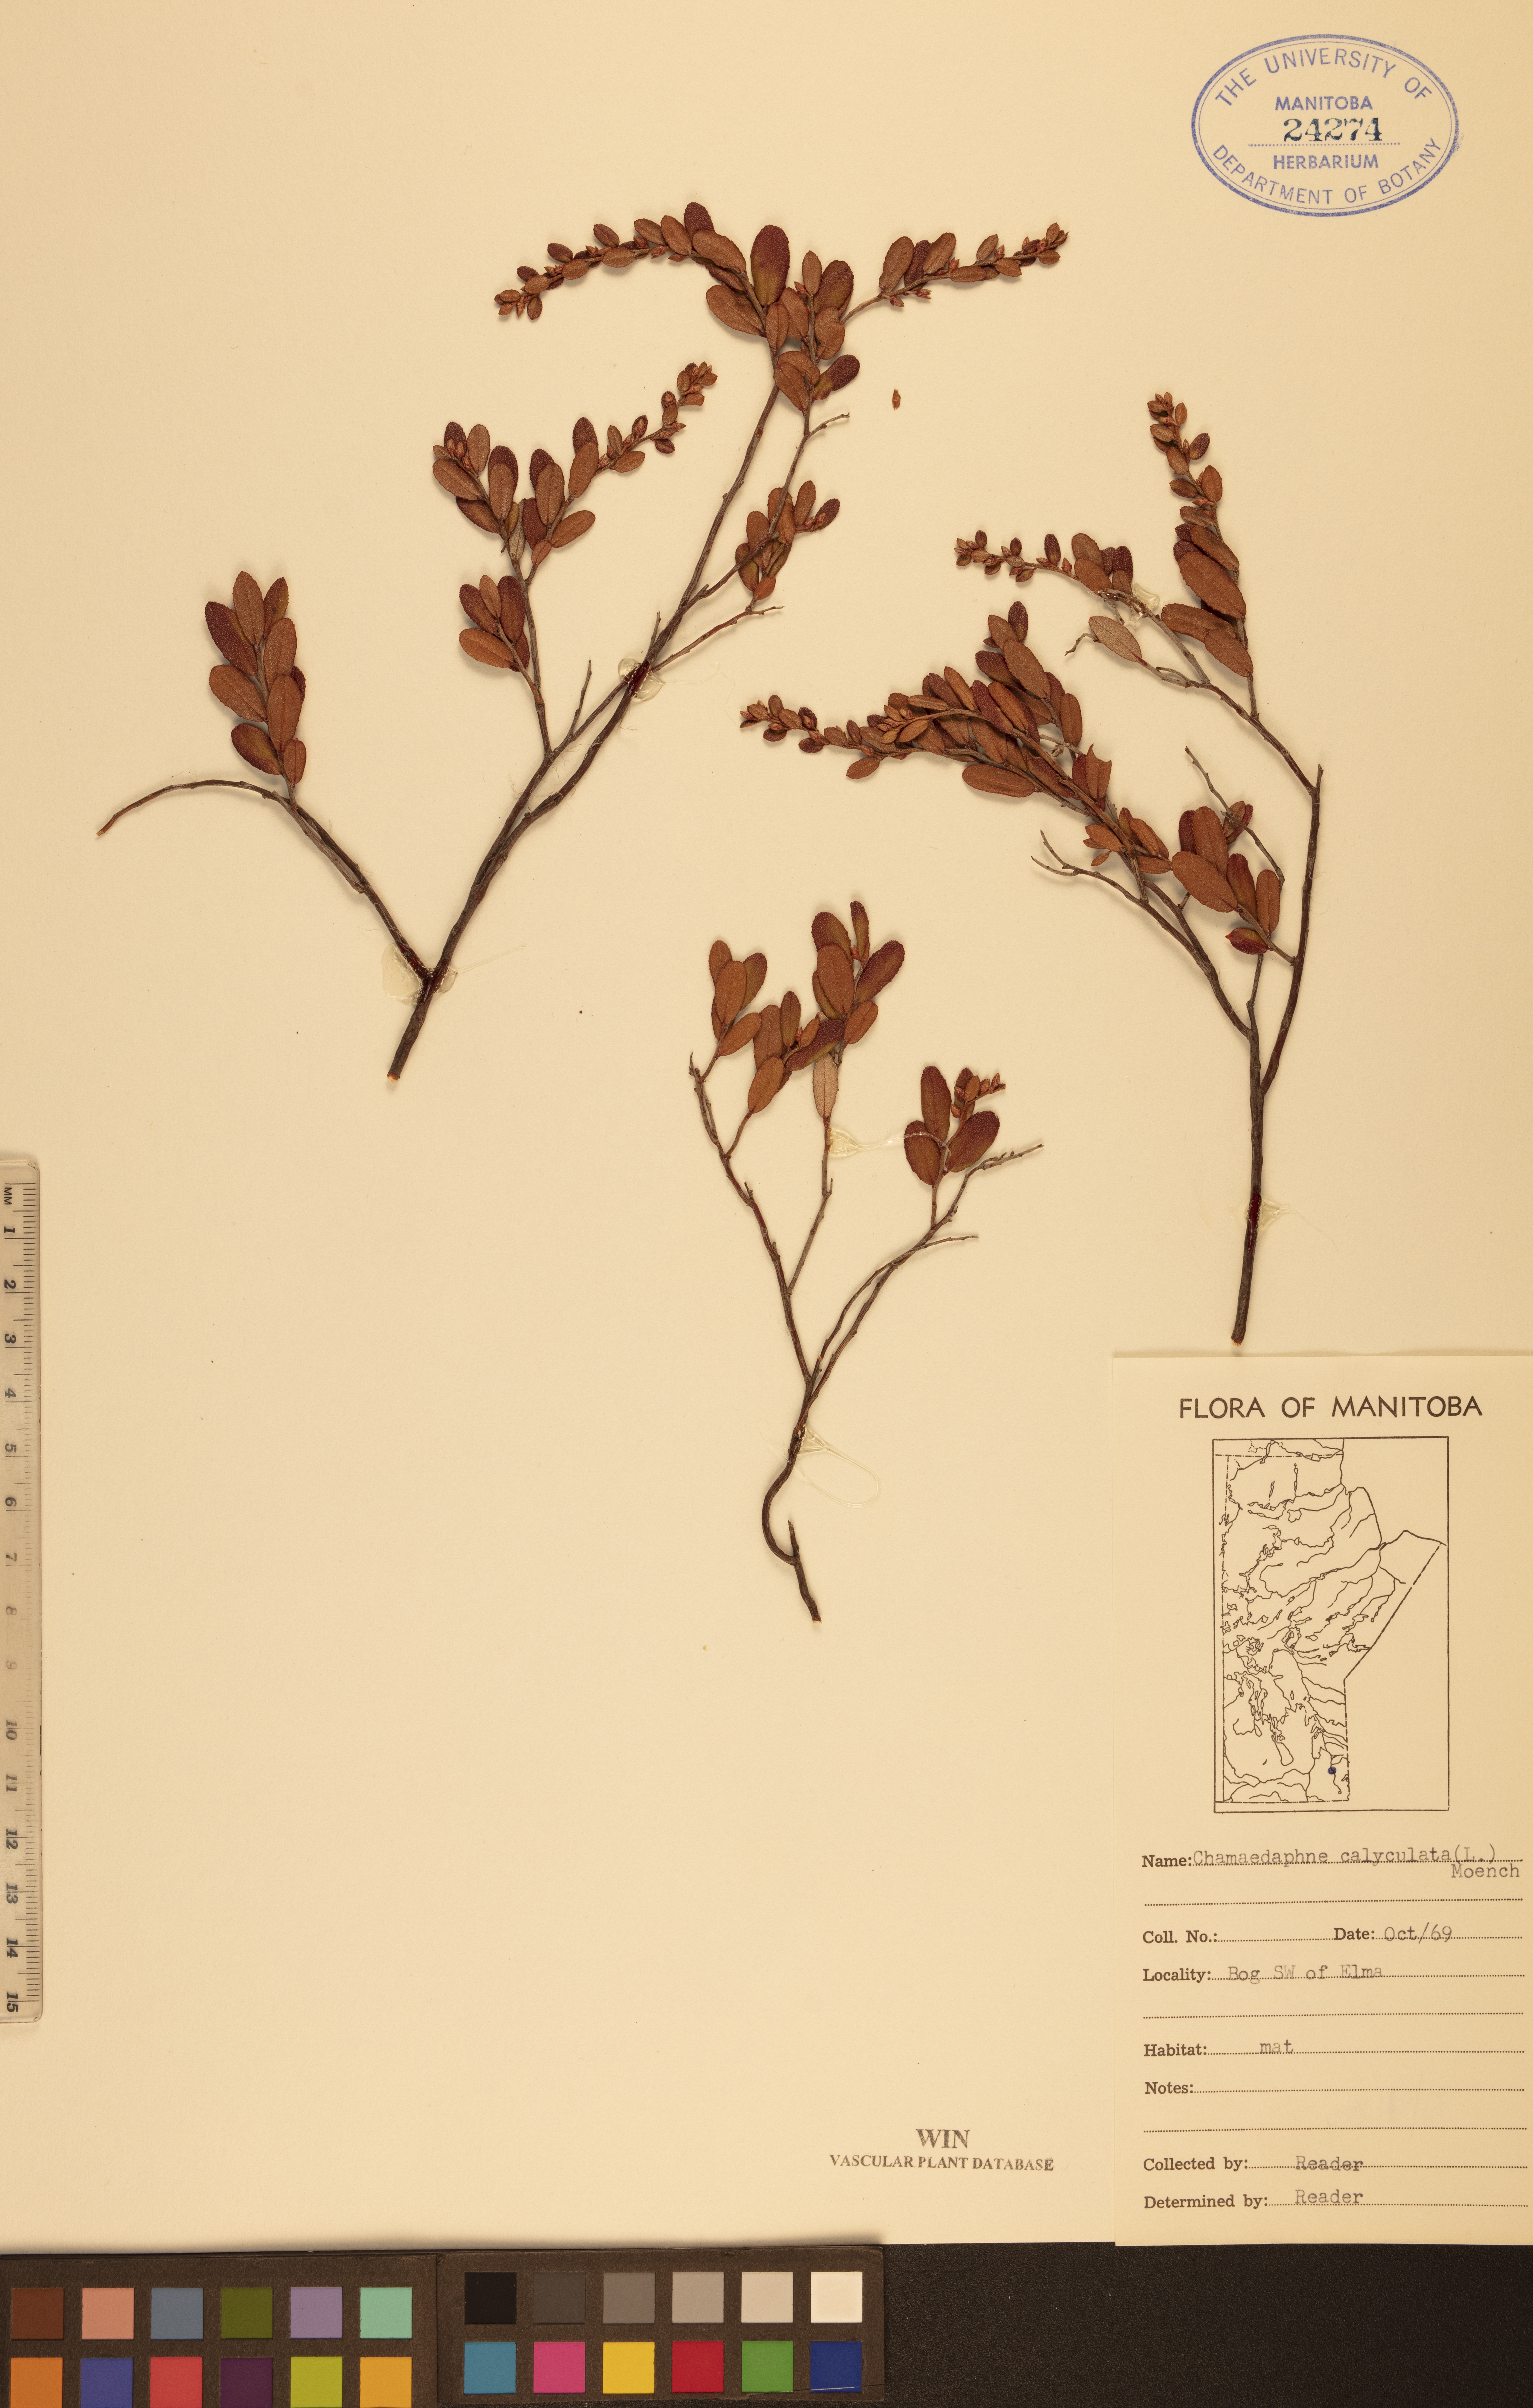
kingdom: Plantae
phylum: Tracheophyta
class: Magnoliopsida
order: Ericales
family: Ericaceae
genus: Chamaedaphne
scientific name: Chamaedaphne calyculata
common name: Leatherleaf
